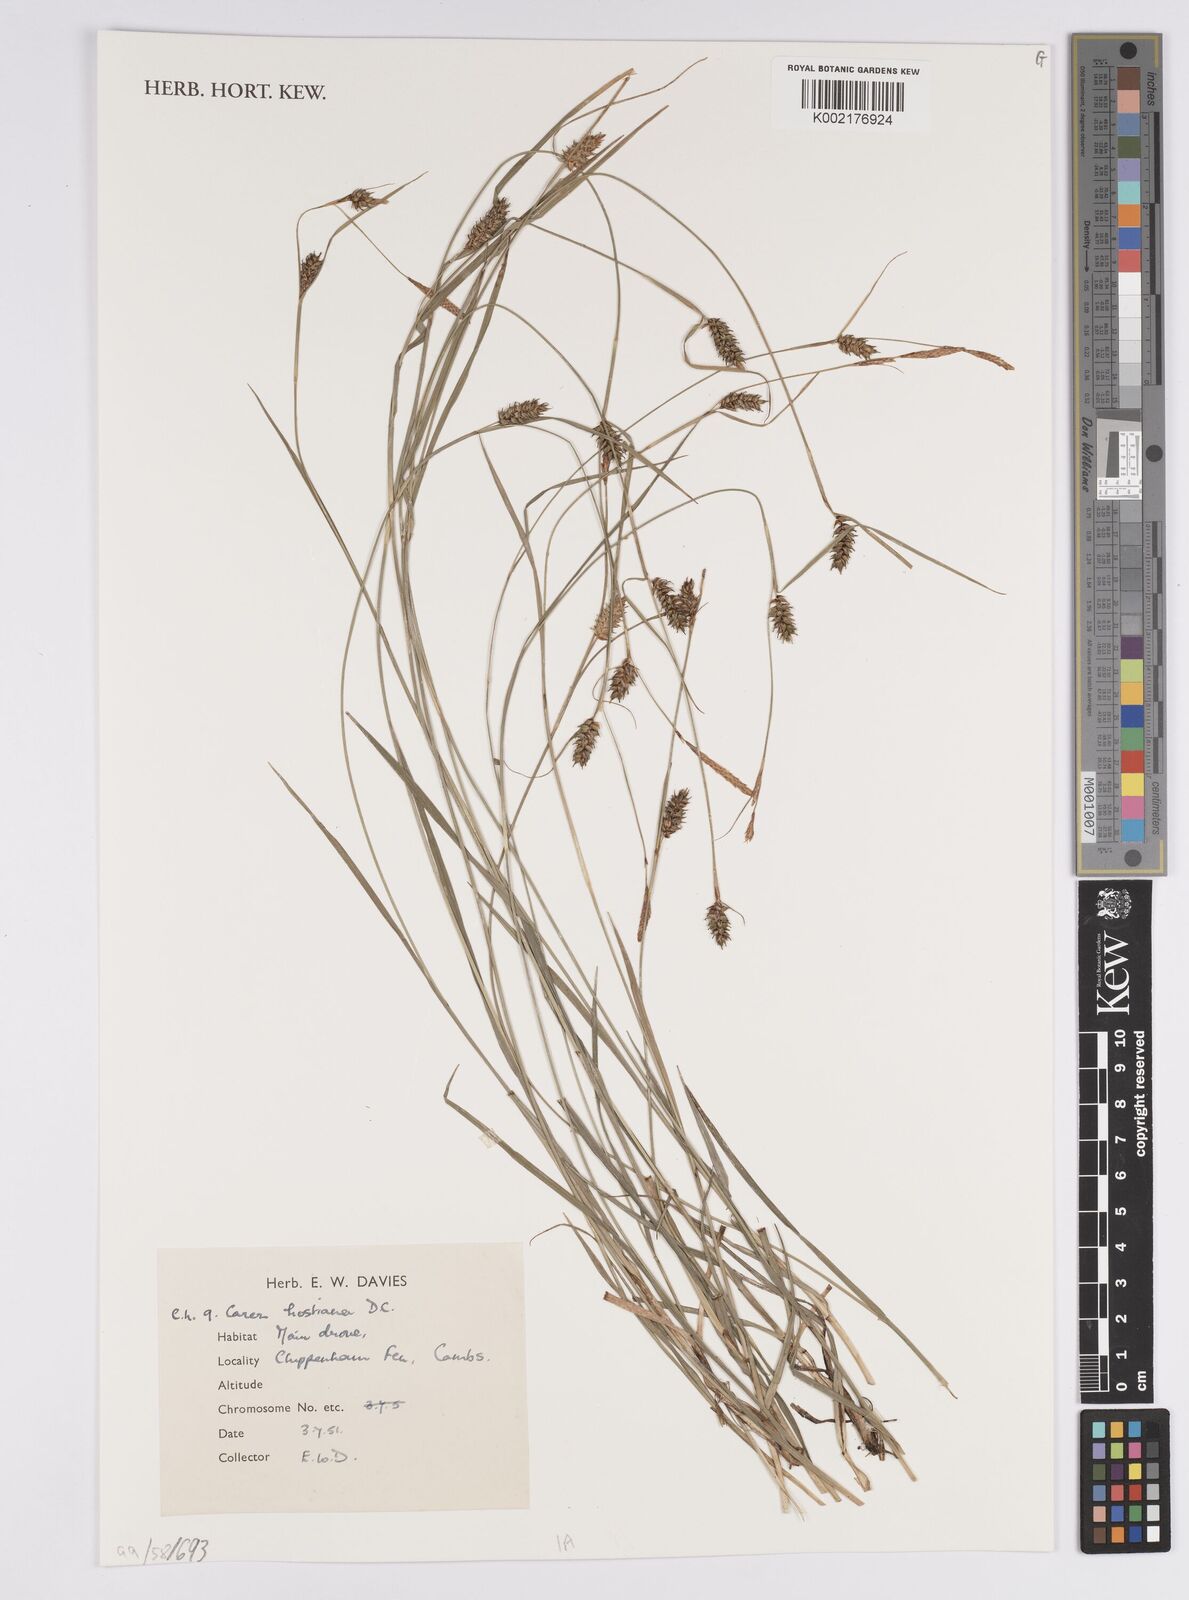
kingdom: Plantae
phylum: Tracheophyta
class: Liliopsida
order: Poales
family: Cyperaceae
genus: Carex
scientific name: Carex hostiana
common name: Tawny sedge
